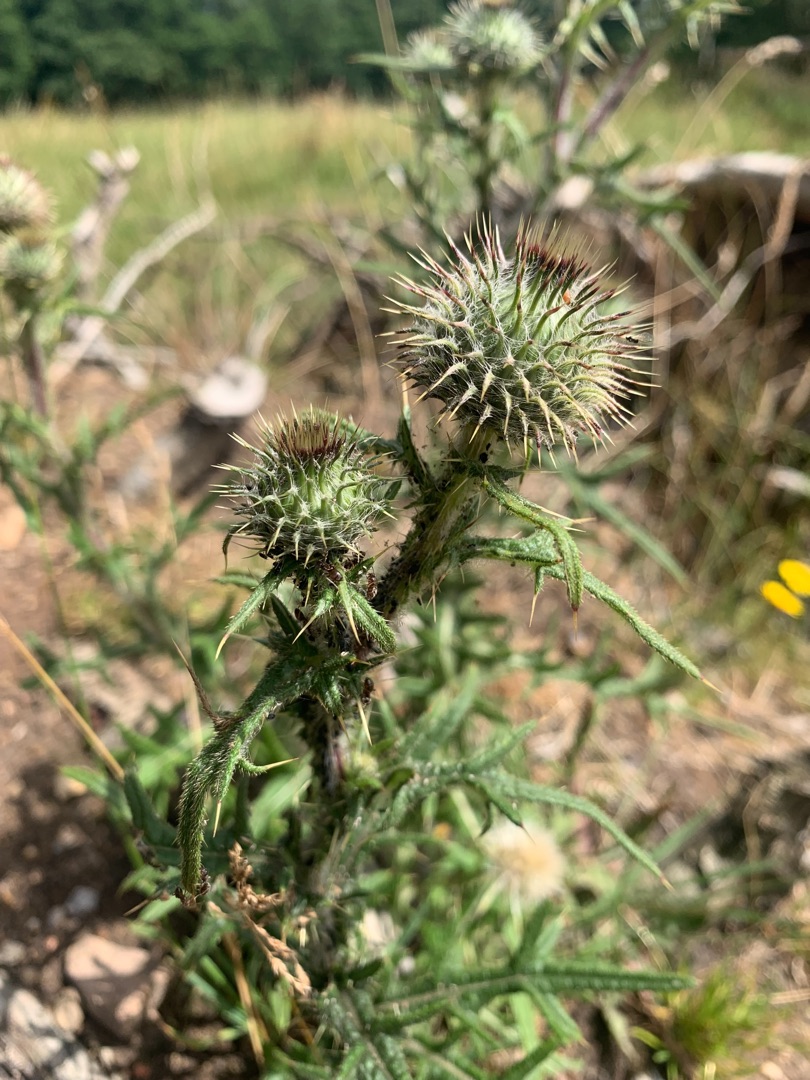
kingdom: Plantae
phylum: Tracheophyta
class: Magnoliopsida
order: Asterales
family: Asteraceae
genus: Cirsium
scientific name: Cirsium vulgare
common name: Horse-tidsel
